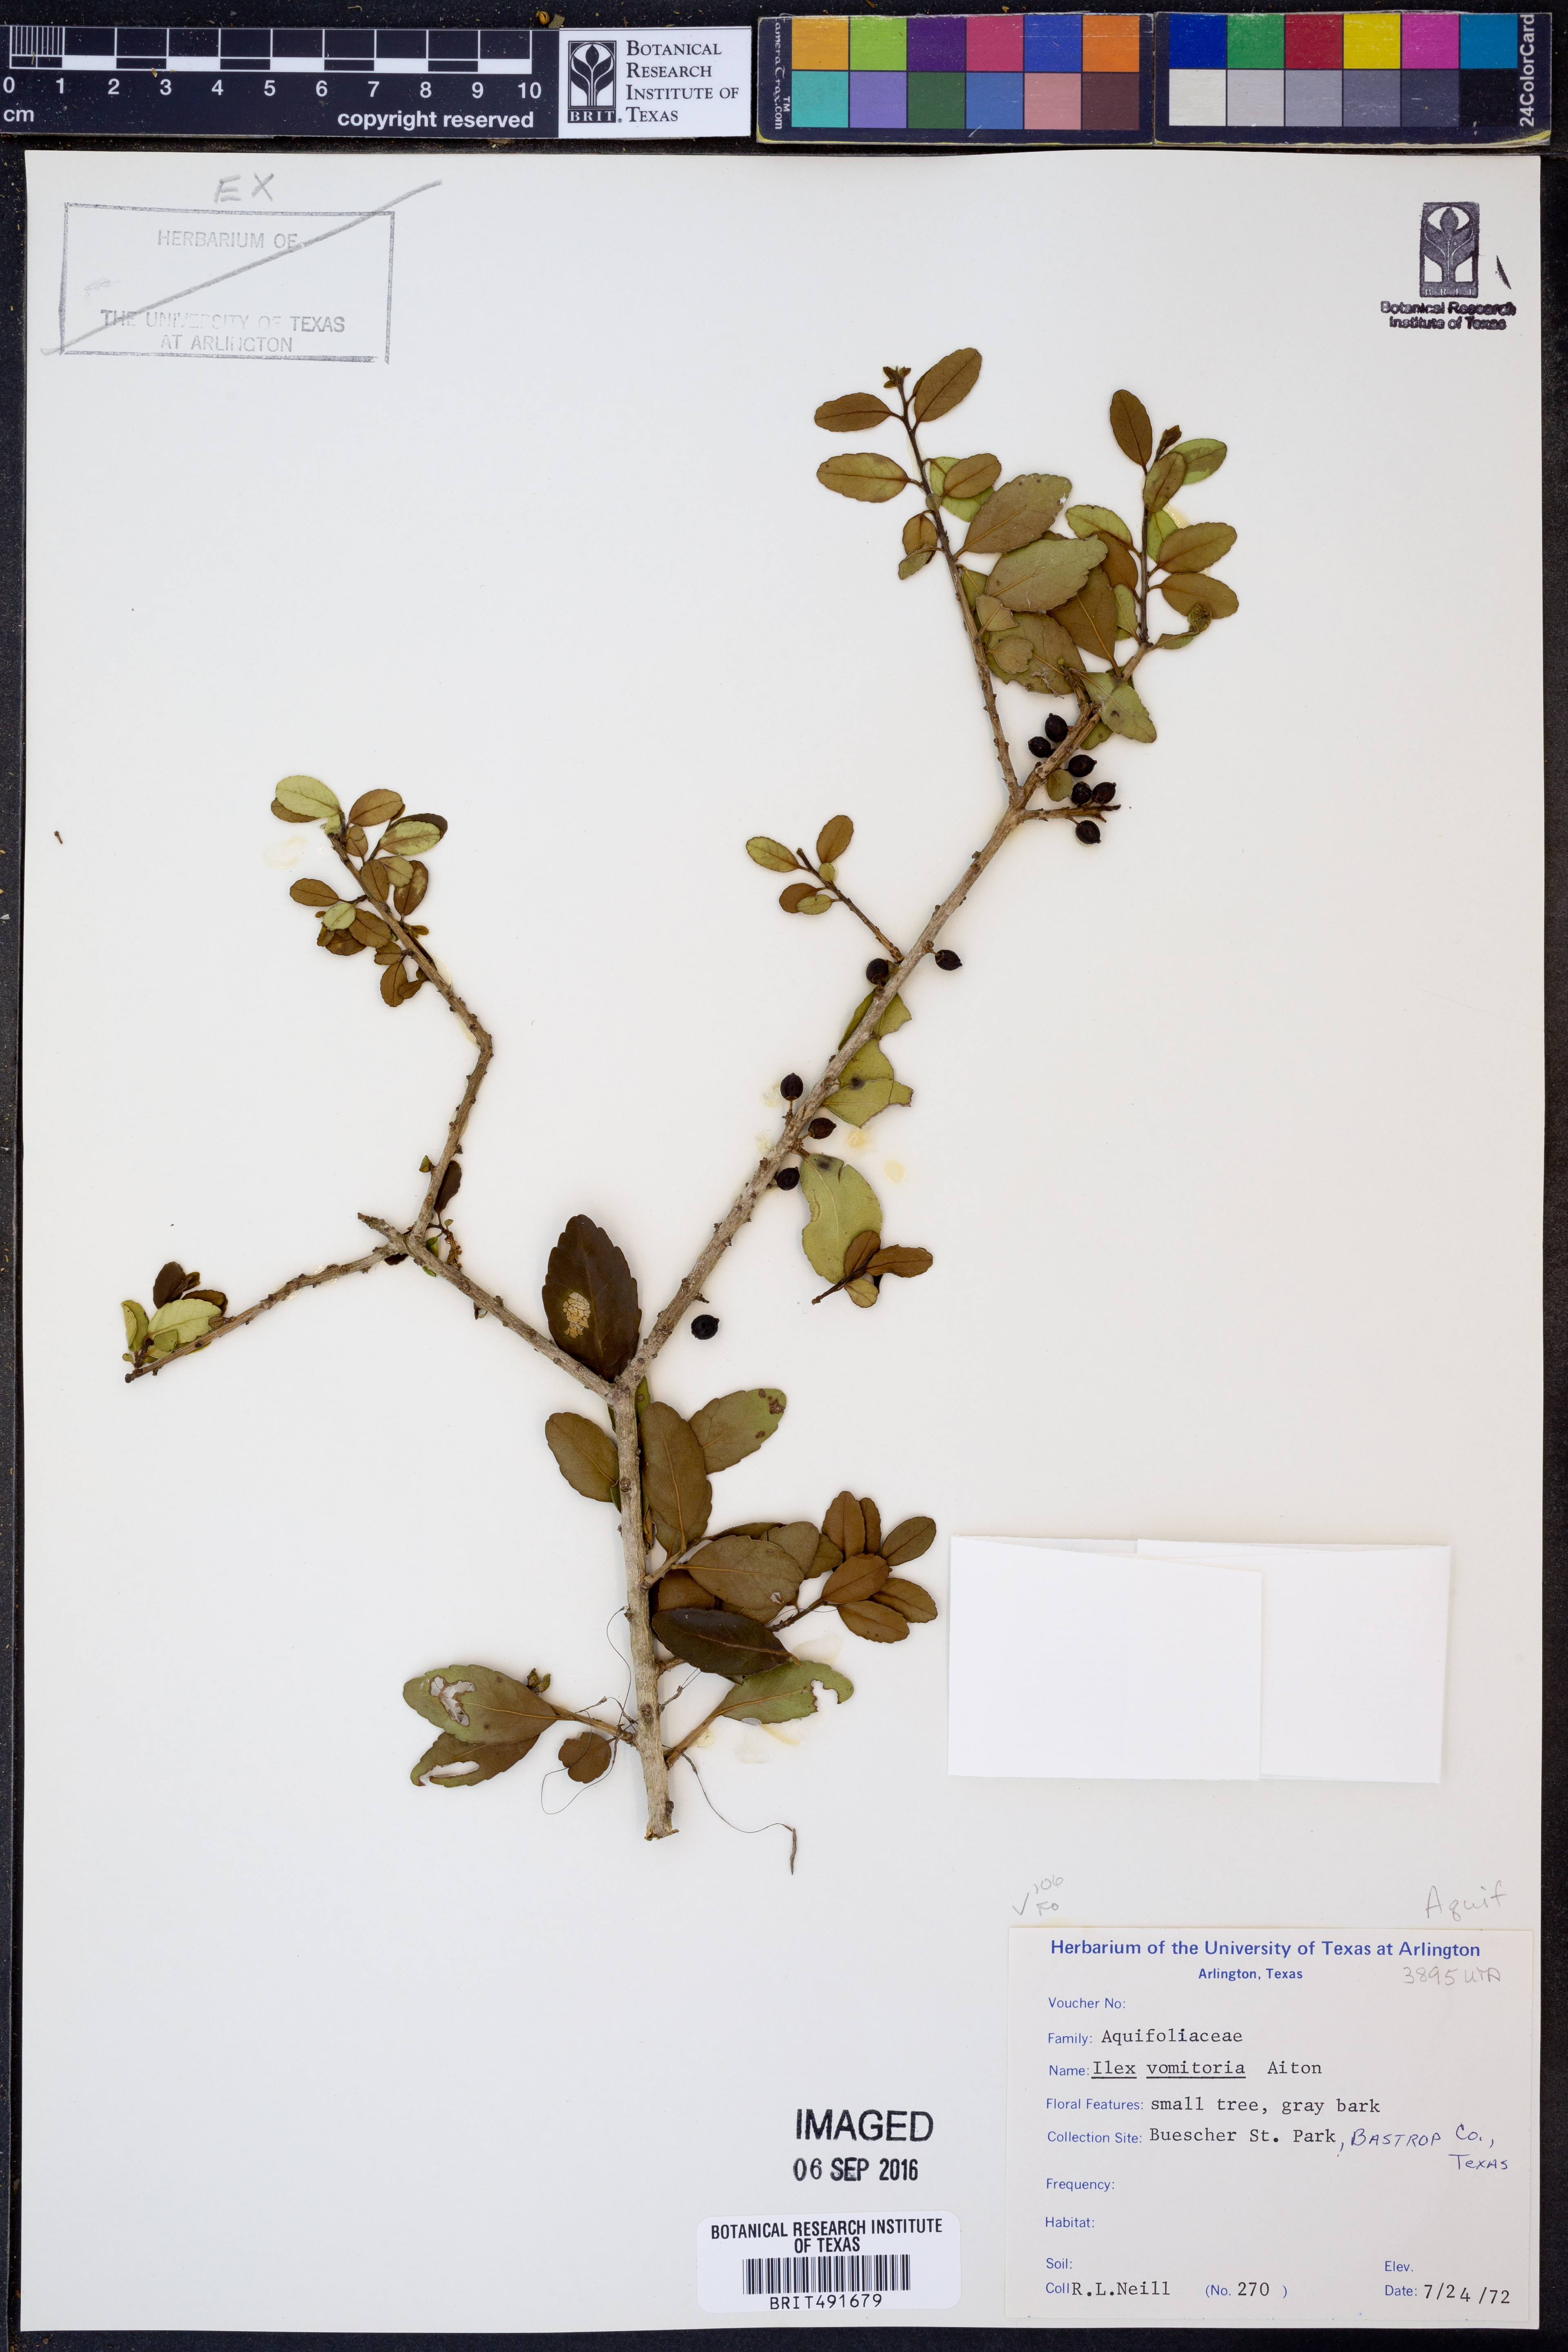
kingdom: Plantae
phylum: Tracheophyta
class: Magnoliopsida
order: Aquifoliales
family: Aquifoliaceae
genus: Ilex
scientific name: Ilex vomitoria
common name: Yaupon holly
